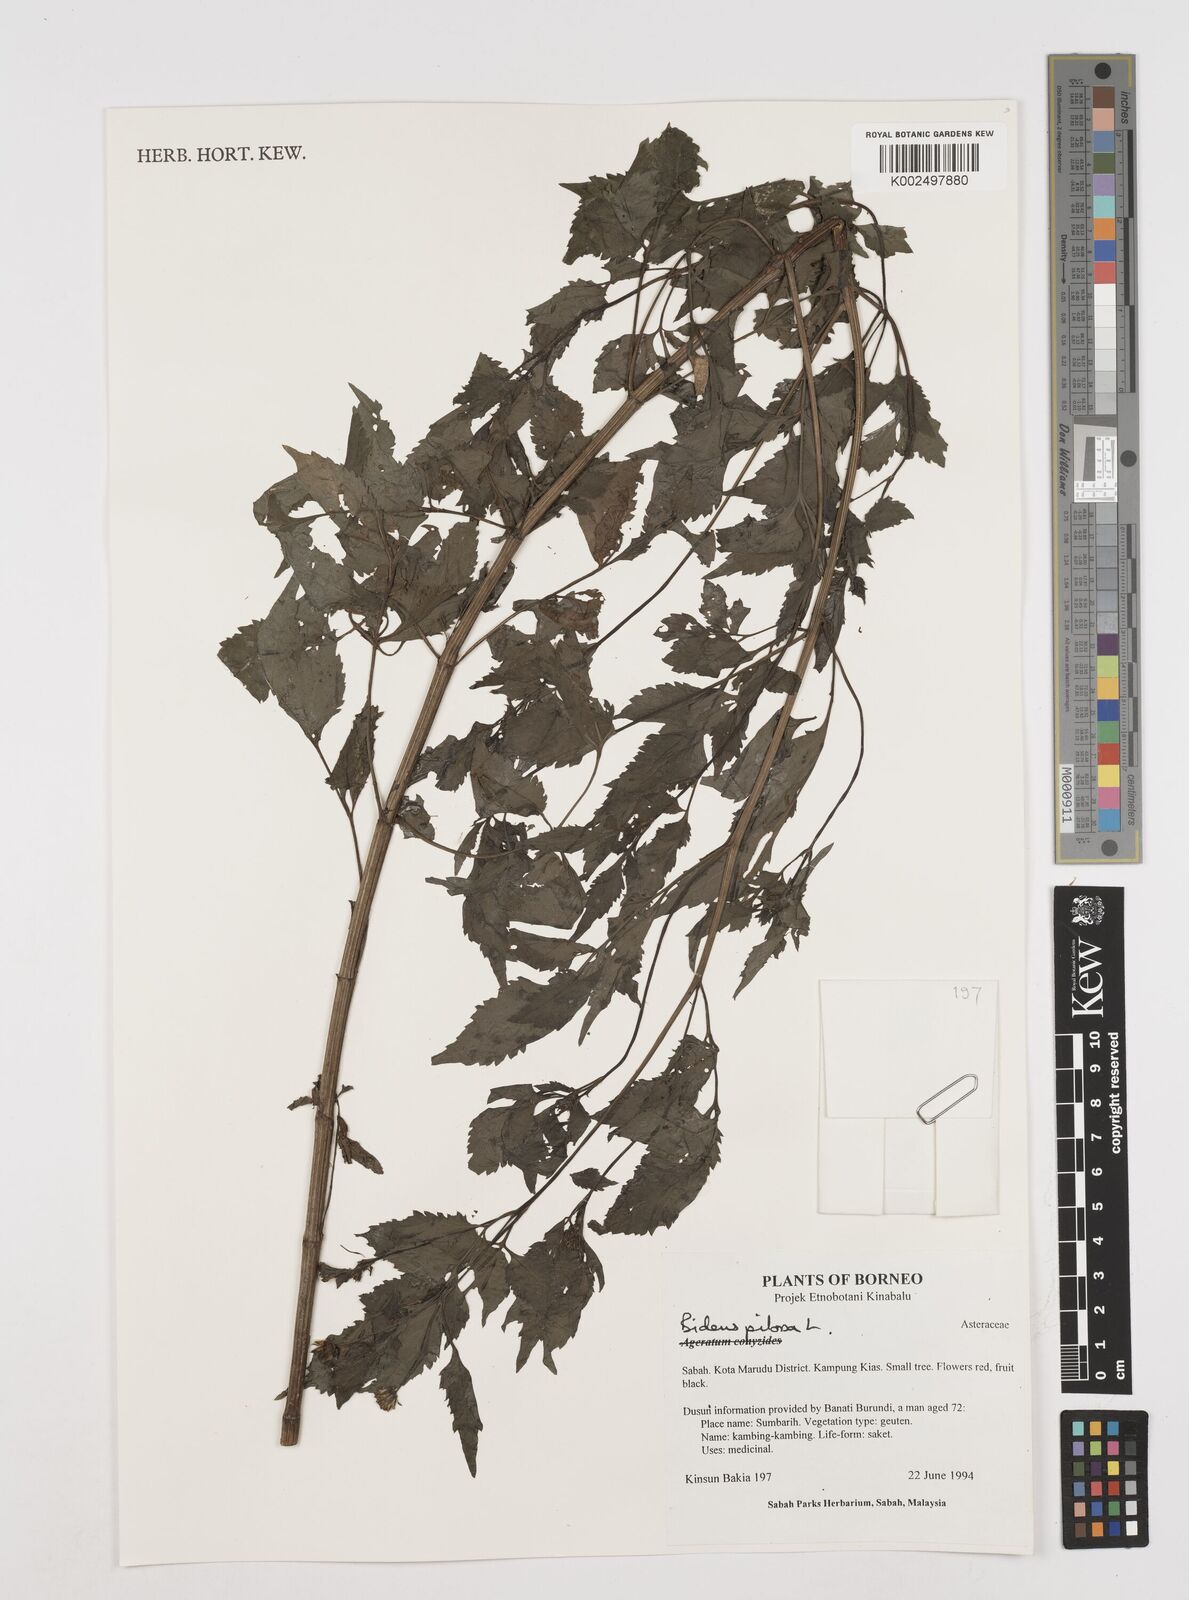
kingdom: Plantae
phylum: Tracheophyta
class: Magnoliopsida
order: Asterales
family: Asteraceae
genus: Bidens
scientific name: Bidens pilosa
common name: Black-jack
